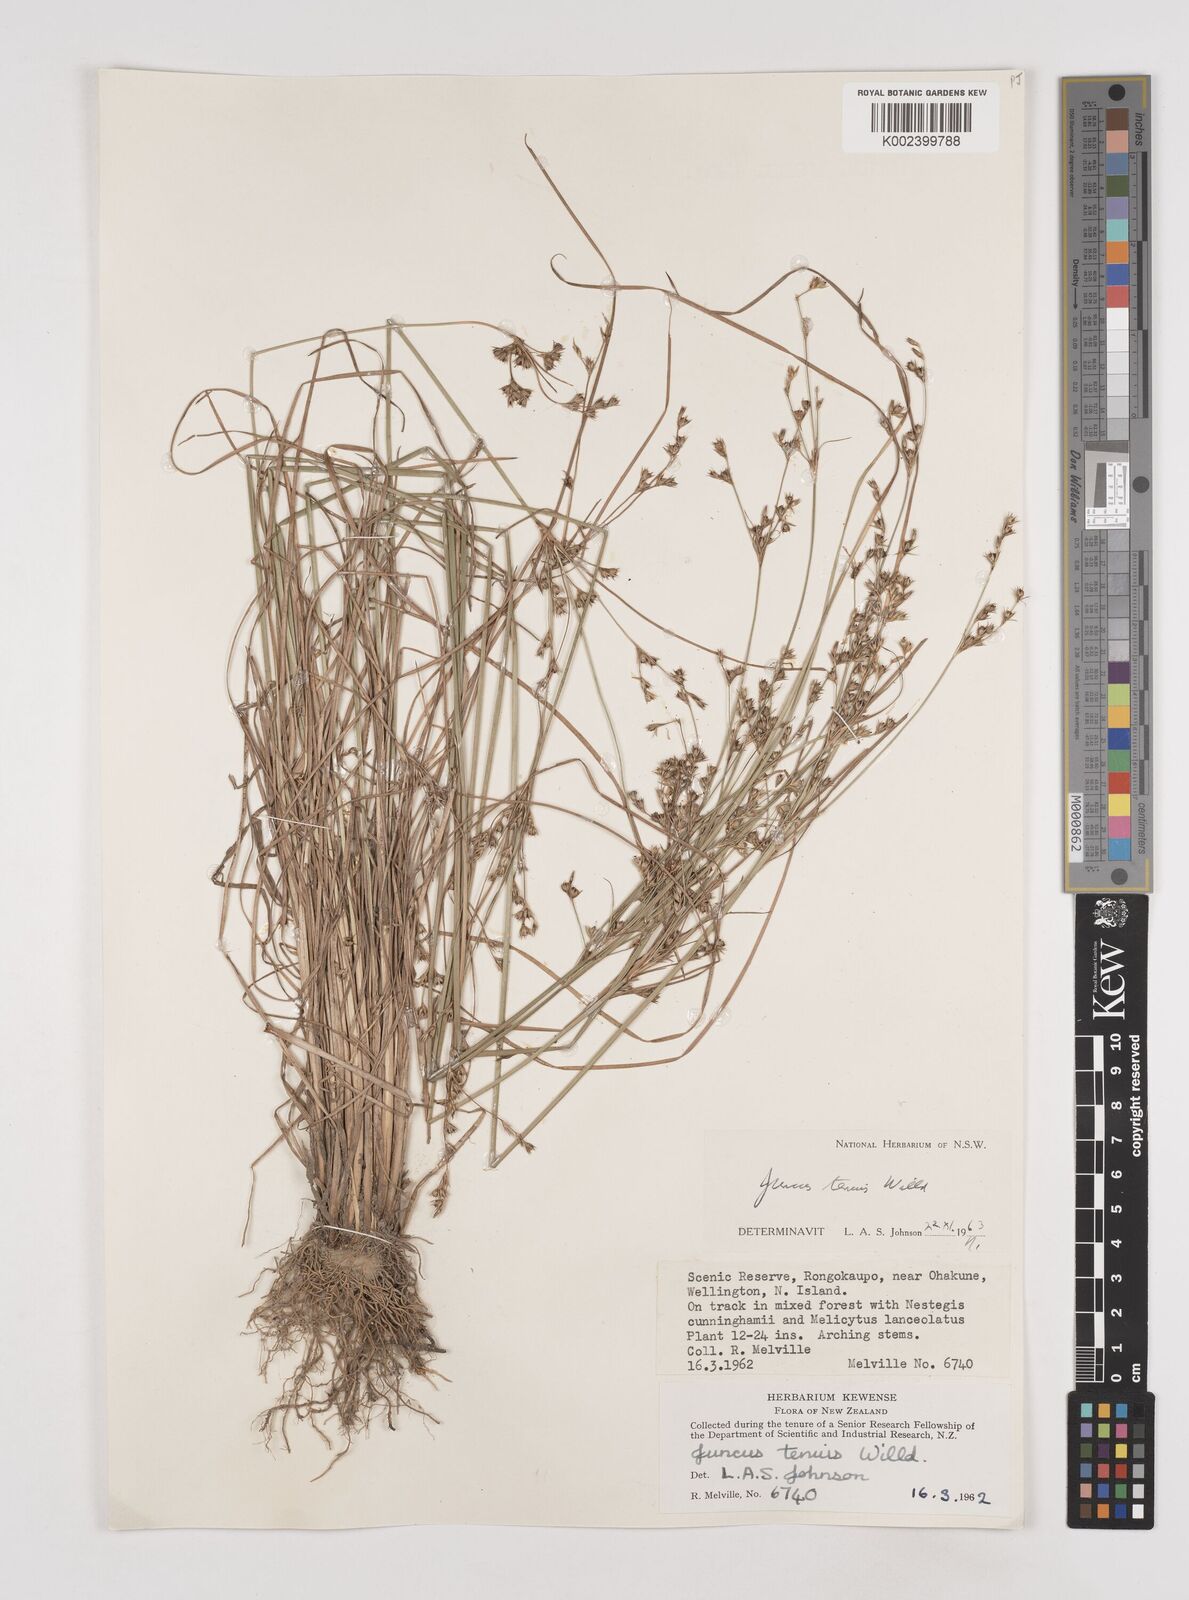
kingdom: Plantae
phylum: Tracheophyta
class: Liliopsida
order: Poales
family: Juncaceae
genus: Juncus
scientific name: Juncus tenuis
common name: Slender rush
